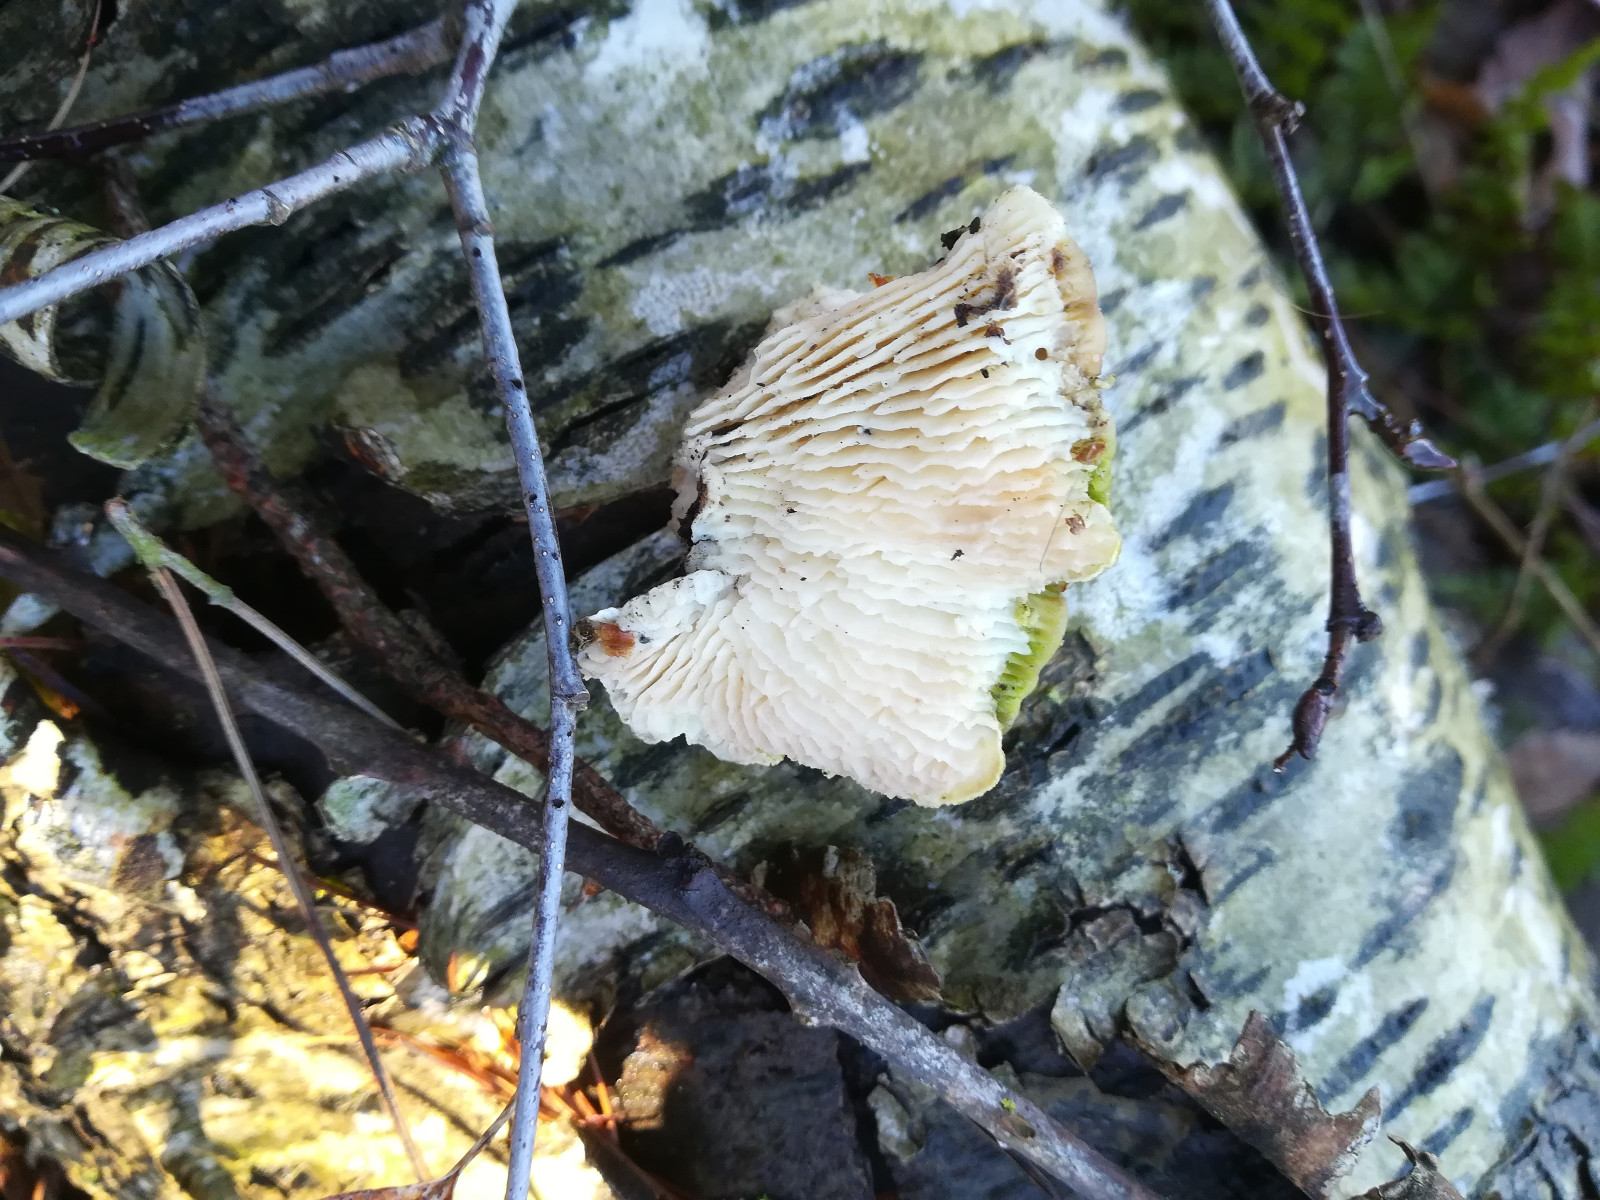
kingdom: Fungi
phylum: Basidiomycota
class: Agaricomycetes
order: Polyporales
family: Polyporaceae
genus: Lenzites
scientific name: Lenzites betulinus
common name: birke-læderporesvamp
